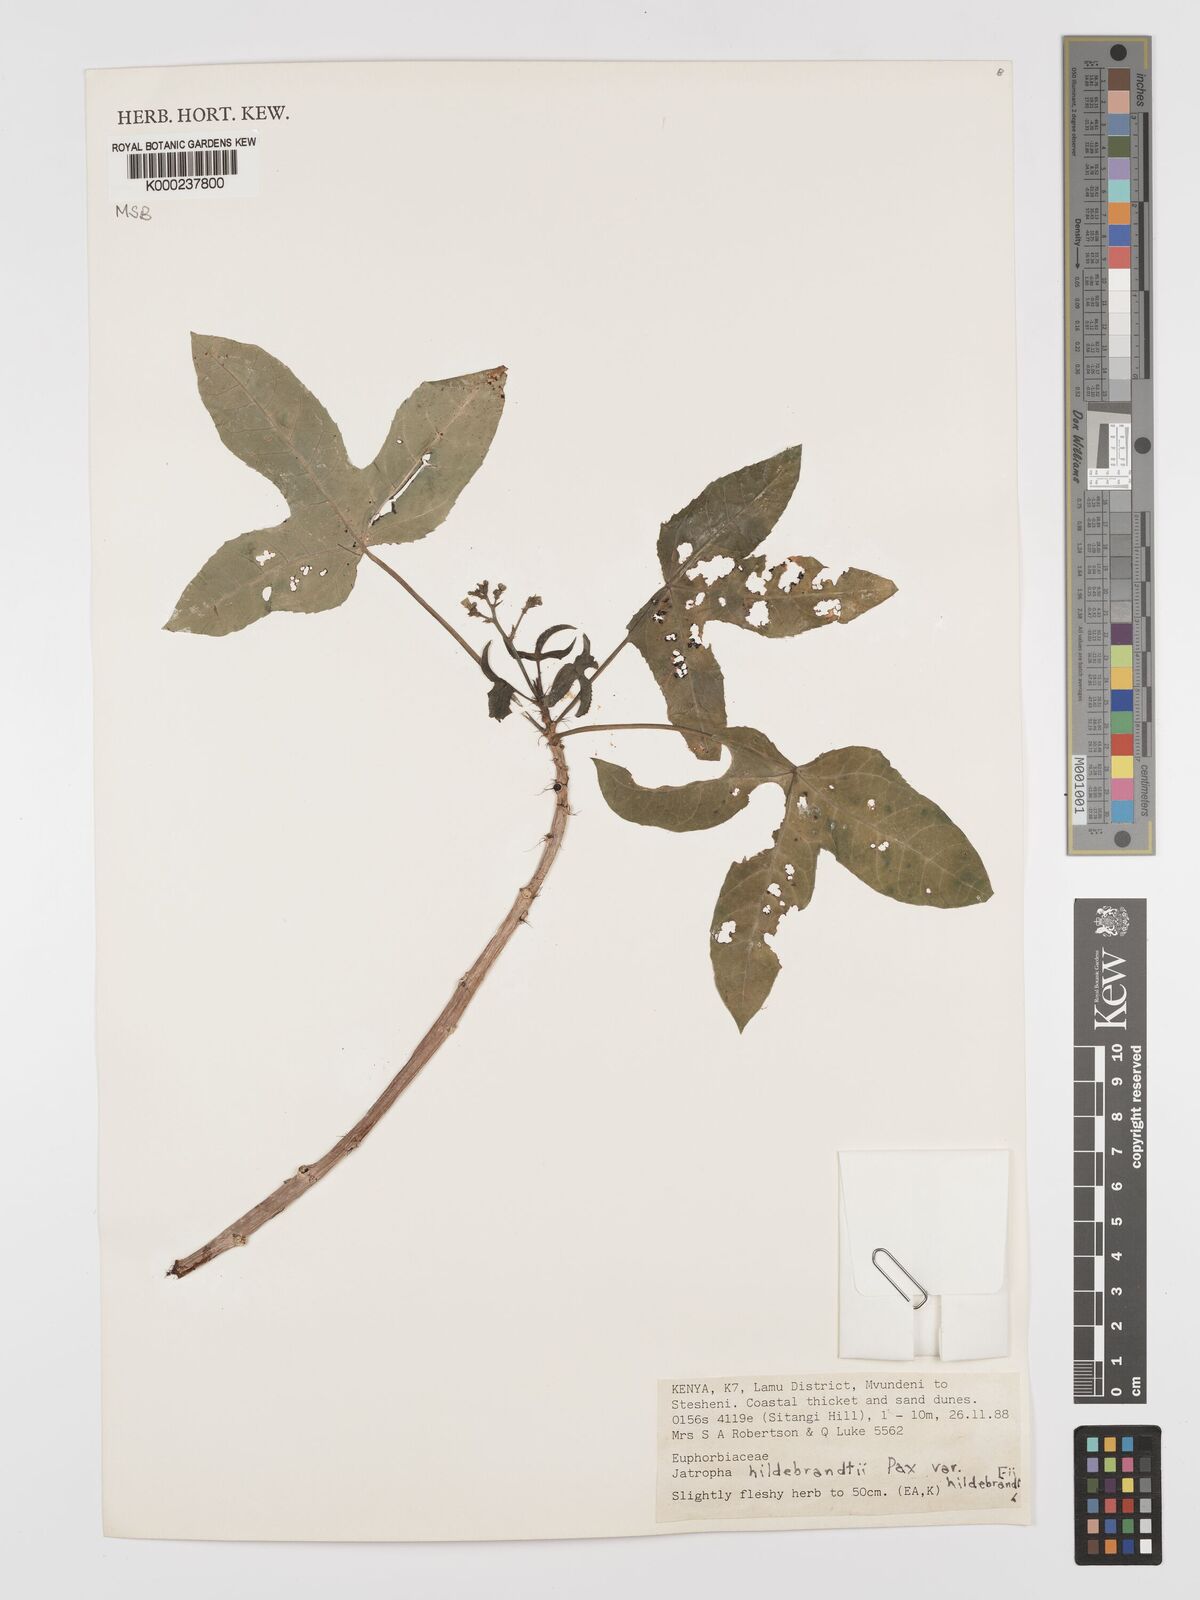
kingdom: Plantae
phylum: Tracheophyta
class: Magnoliopsida
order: Malpighiales
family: Euphorbiaceae
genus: Jatropha
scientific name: Jatropha hildebrandtii
